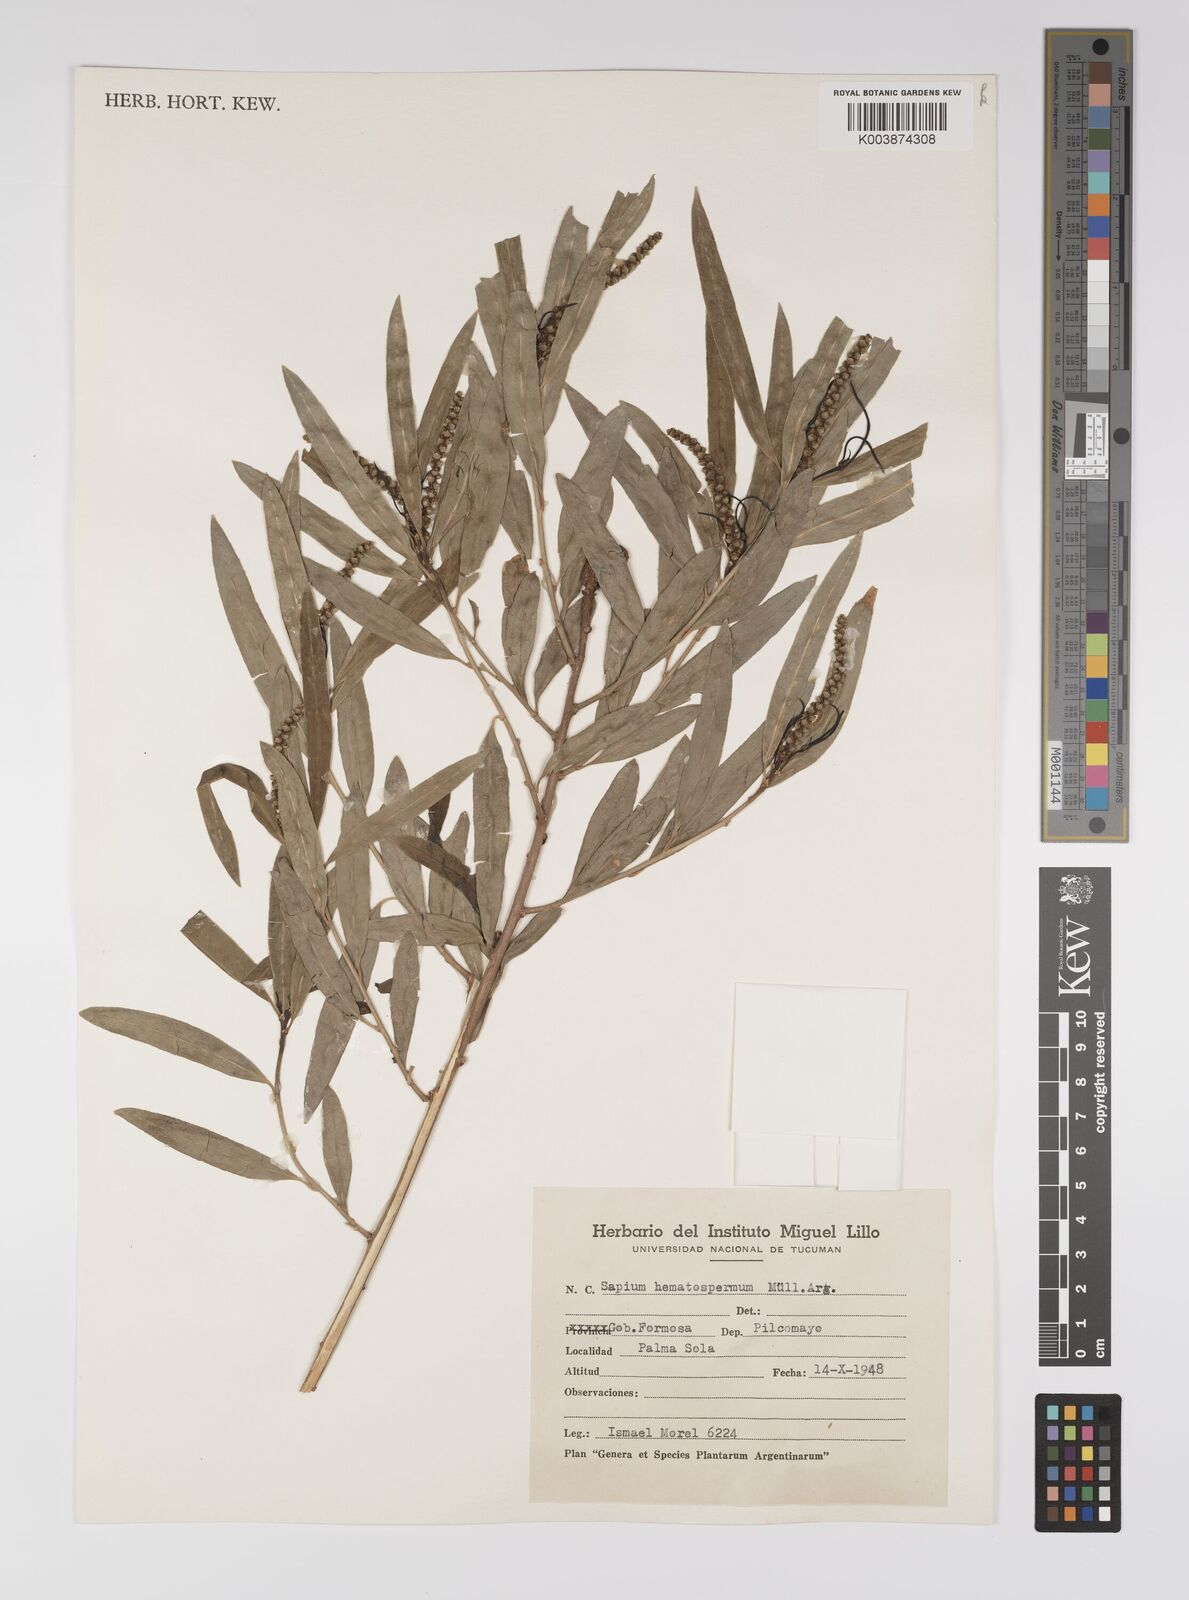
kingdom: Plantae
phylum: Tracheophyta
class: Magnoliopsida
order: Malpighiales
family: Euphorbiaceae
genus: Sapium
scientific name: Sapium haematospermum
